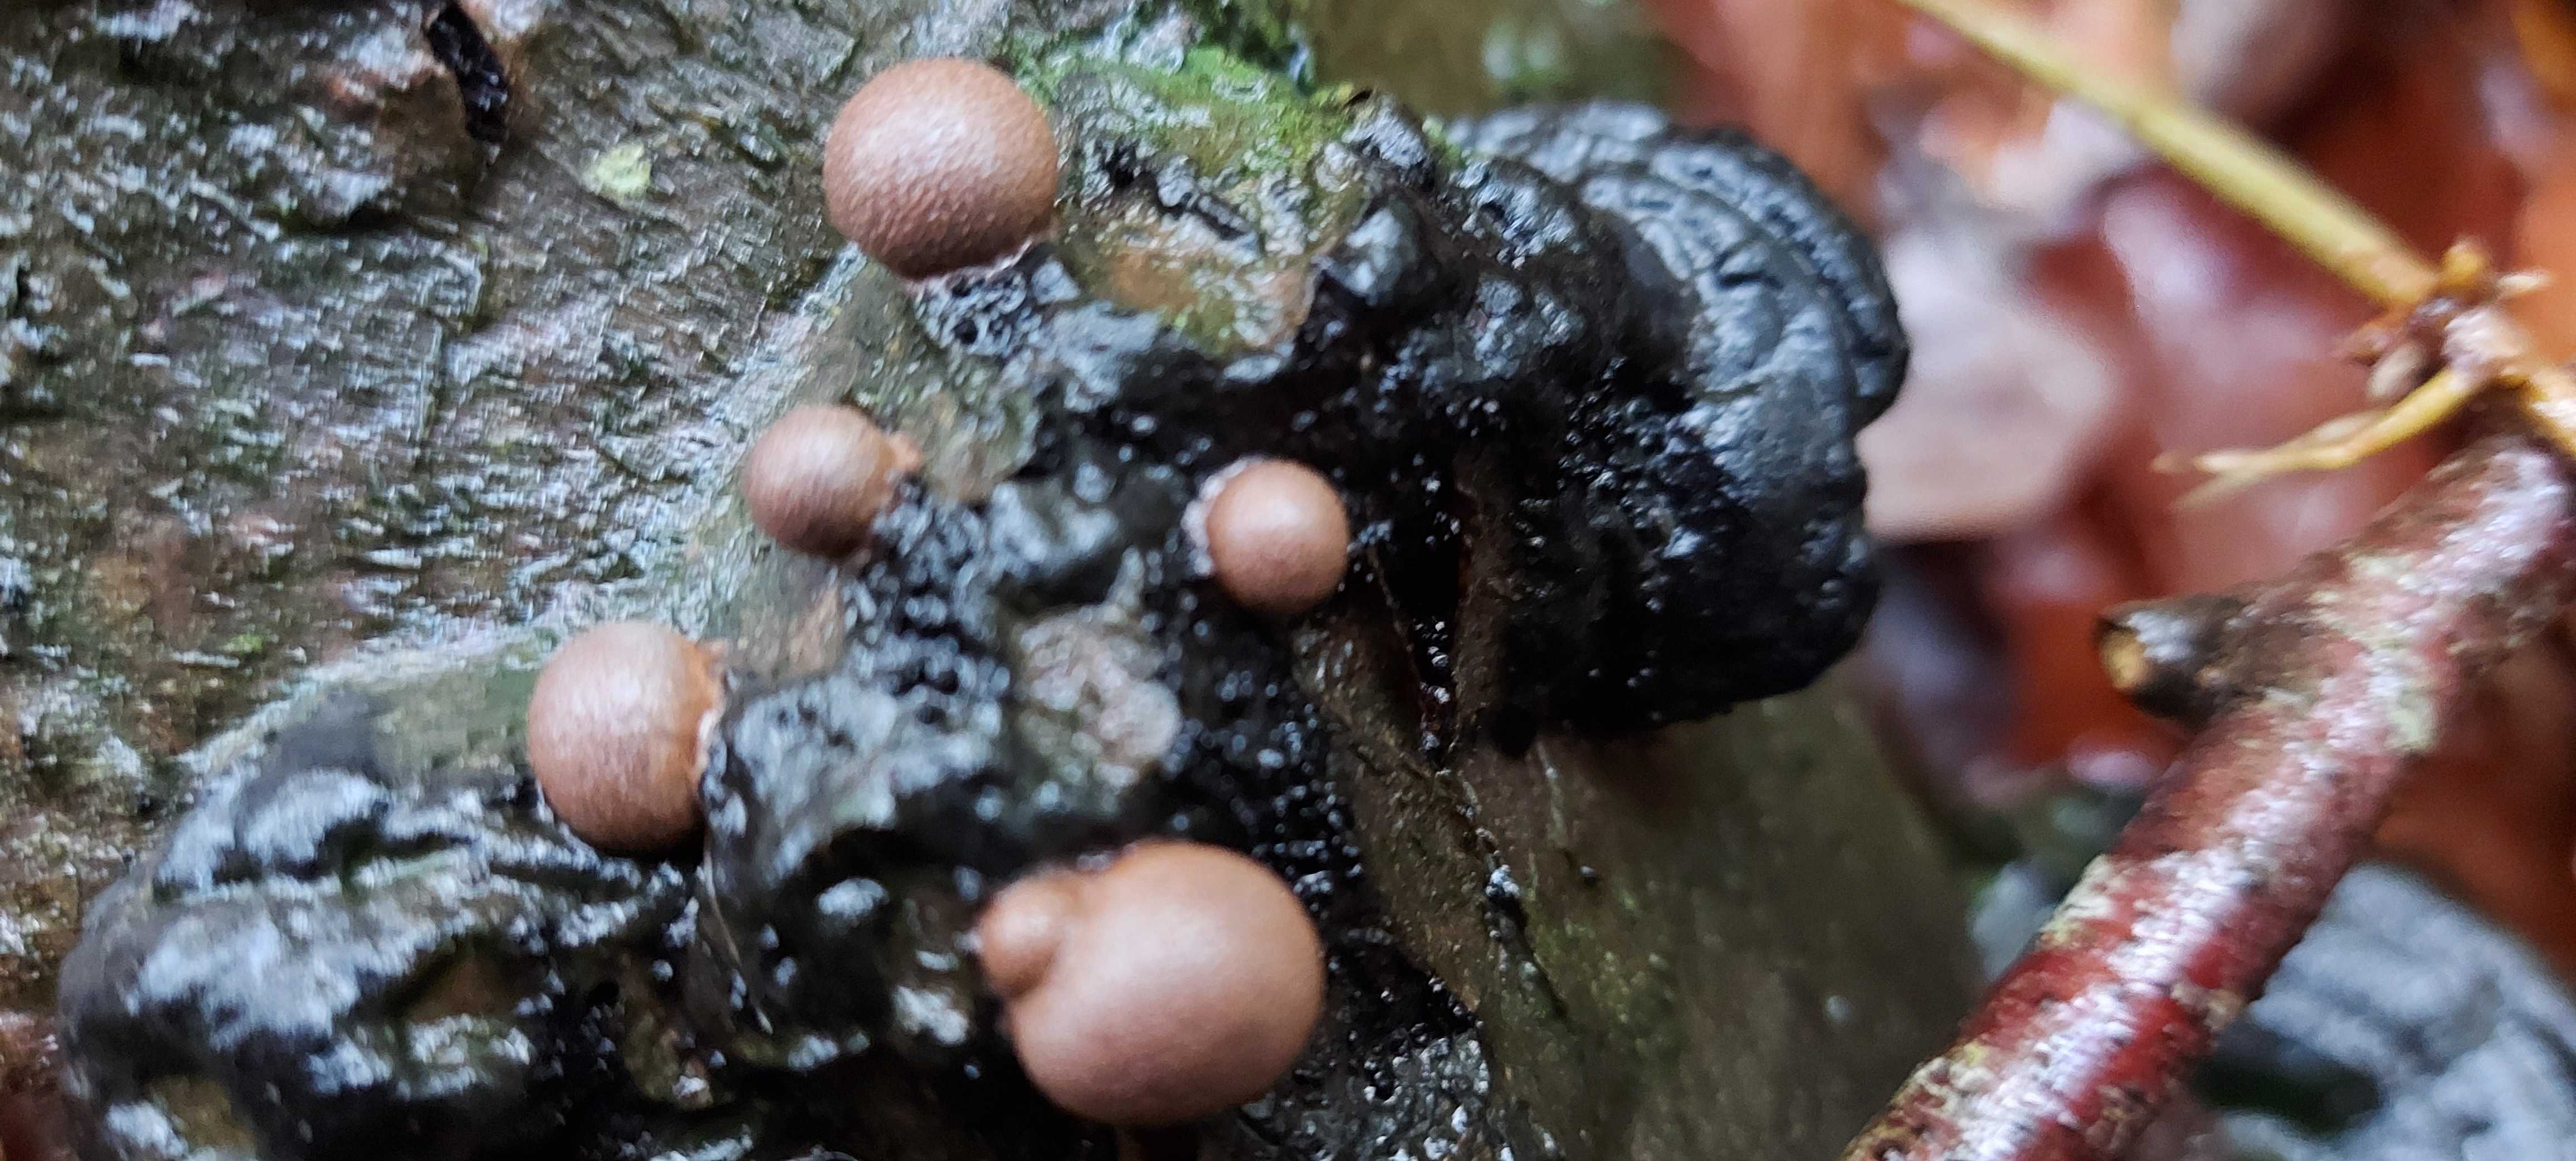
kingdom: Protozoa
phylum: Mycetozoa
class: Myxomycetes
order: Cribrariales
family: Tubiferaceae
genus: Lycogala
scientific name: Lycogala epidendrum
